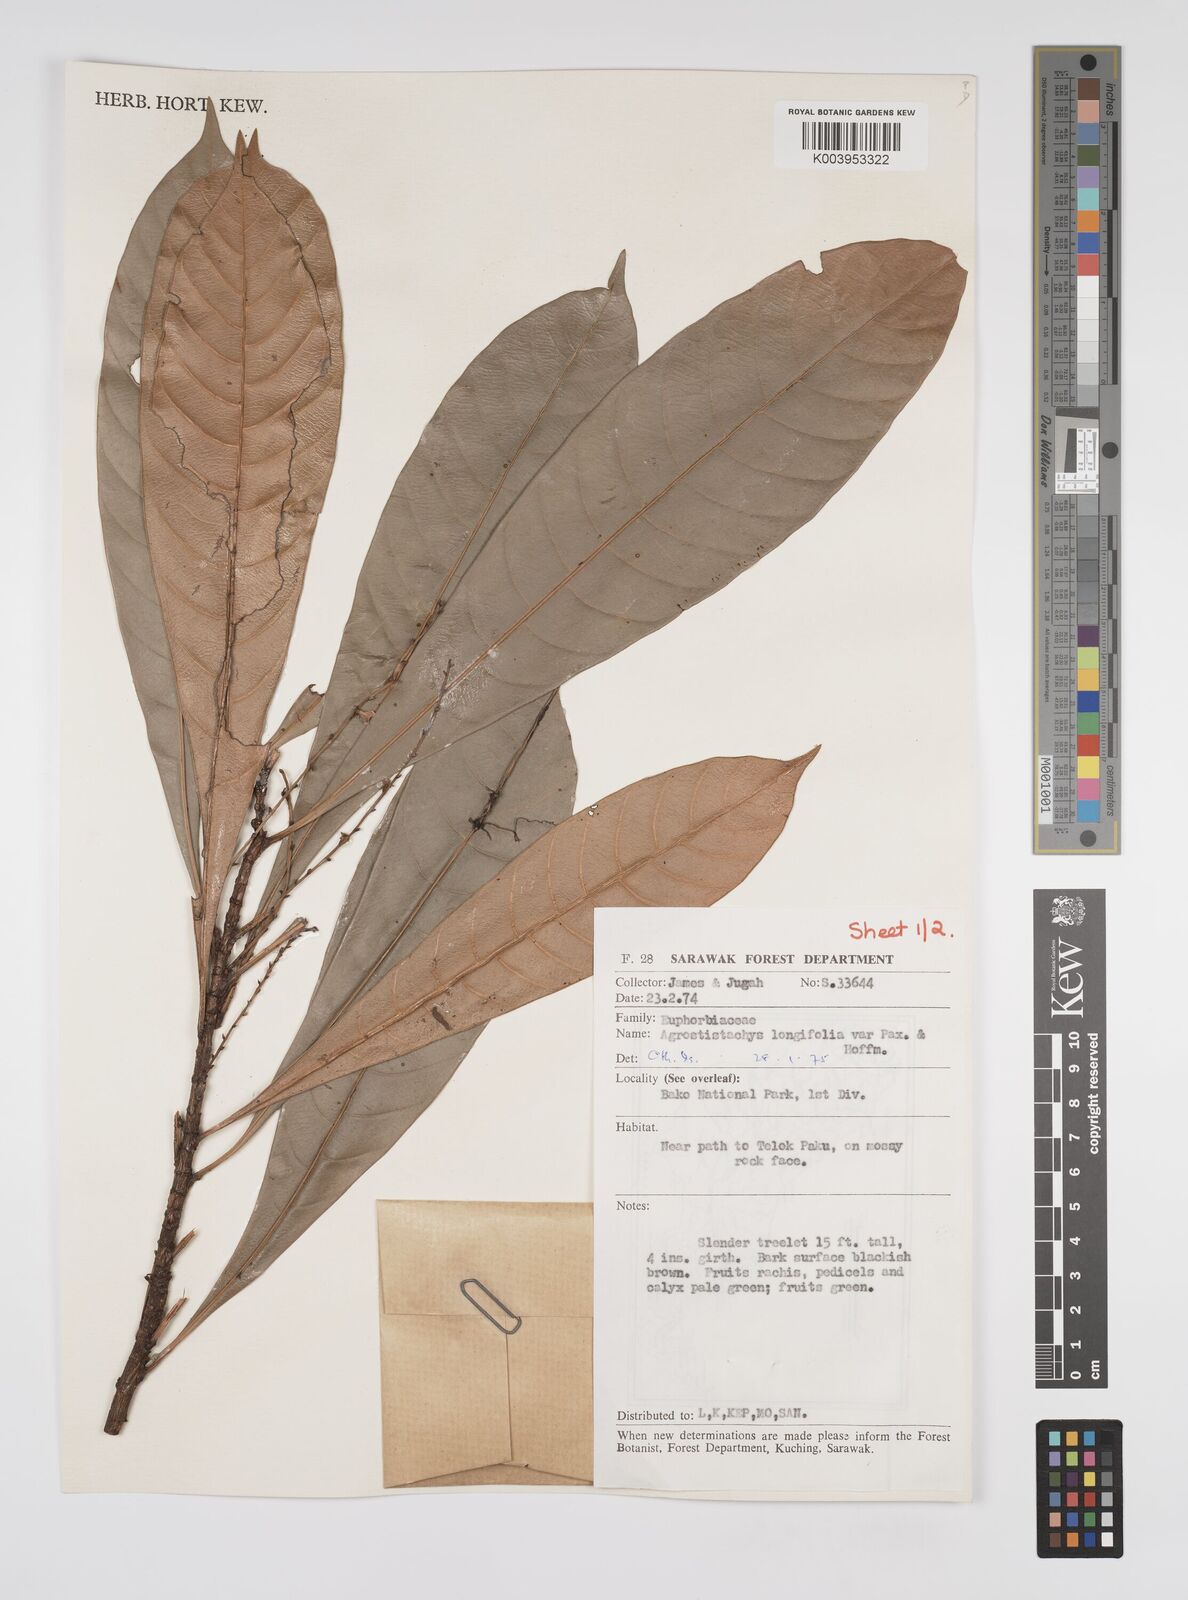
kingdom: Plantae
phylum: Tracheophyta
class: Magnoliopsida
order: Malpighiales
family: Euphorbiaceae
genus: Agrostistachys
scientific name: Agrostistachys
